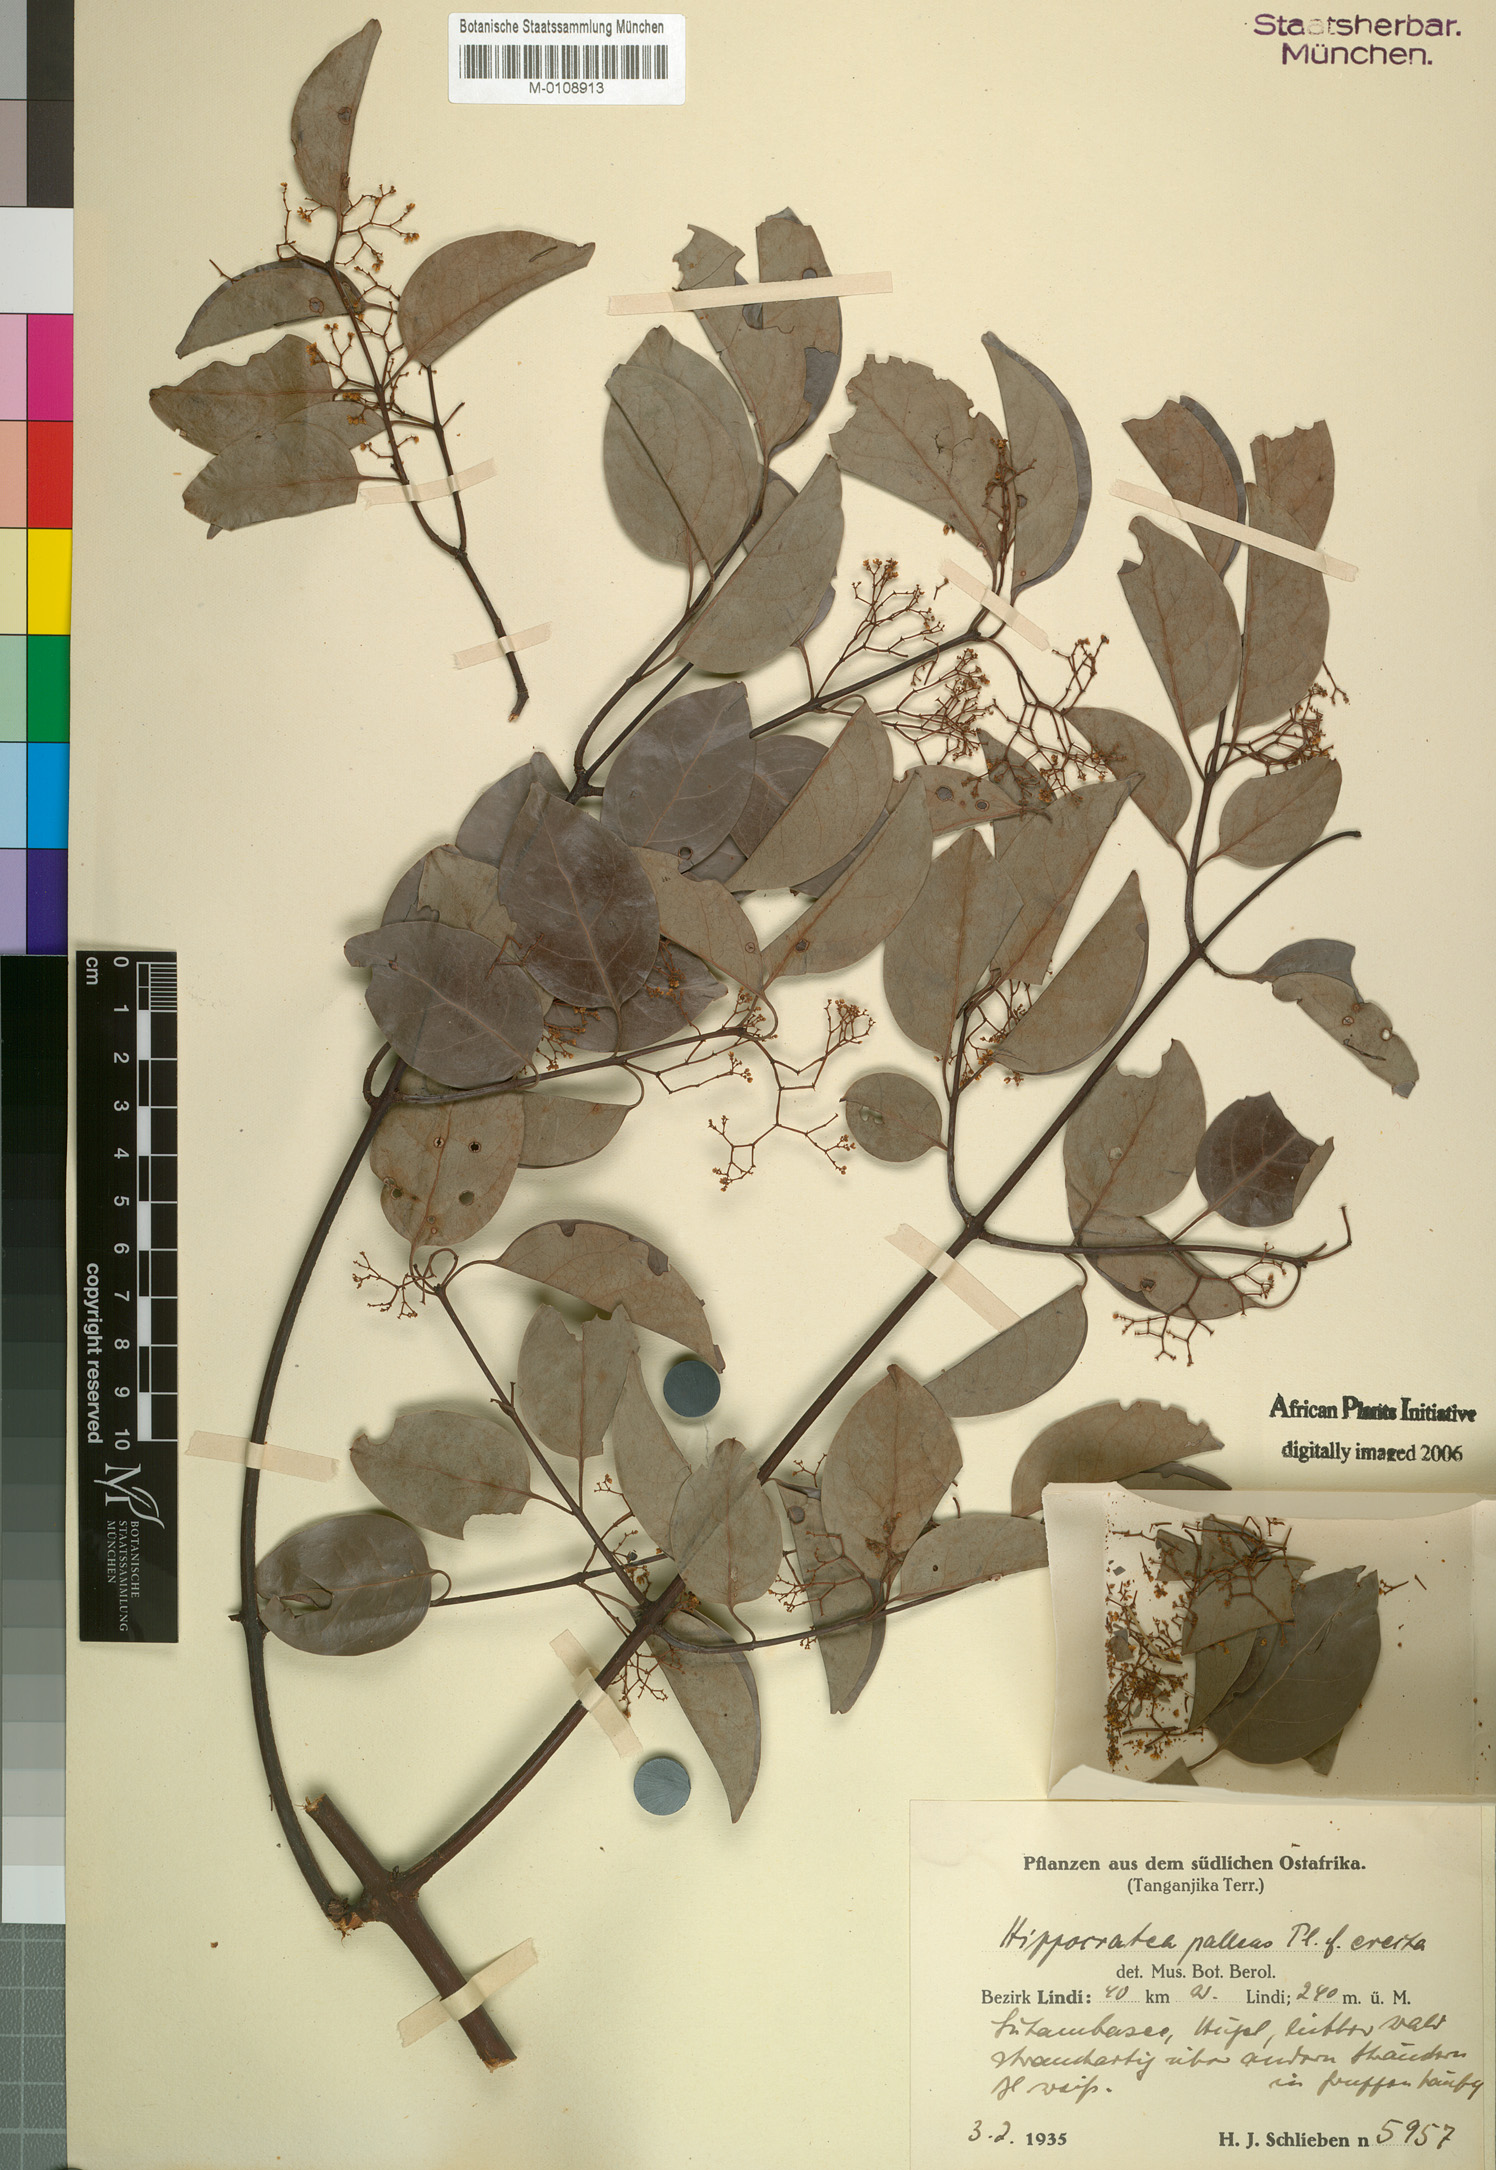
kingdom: Plantae
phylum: Tracheophyta
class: Magnoliopsida
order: Celastrales
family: Celastraceae
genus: Apodostigma
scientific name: Apodostigma pallens
